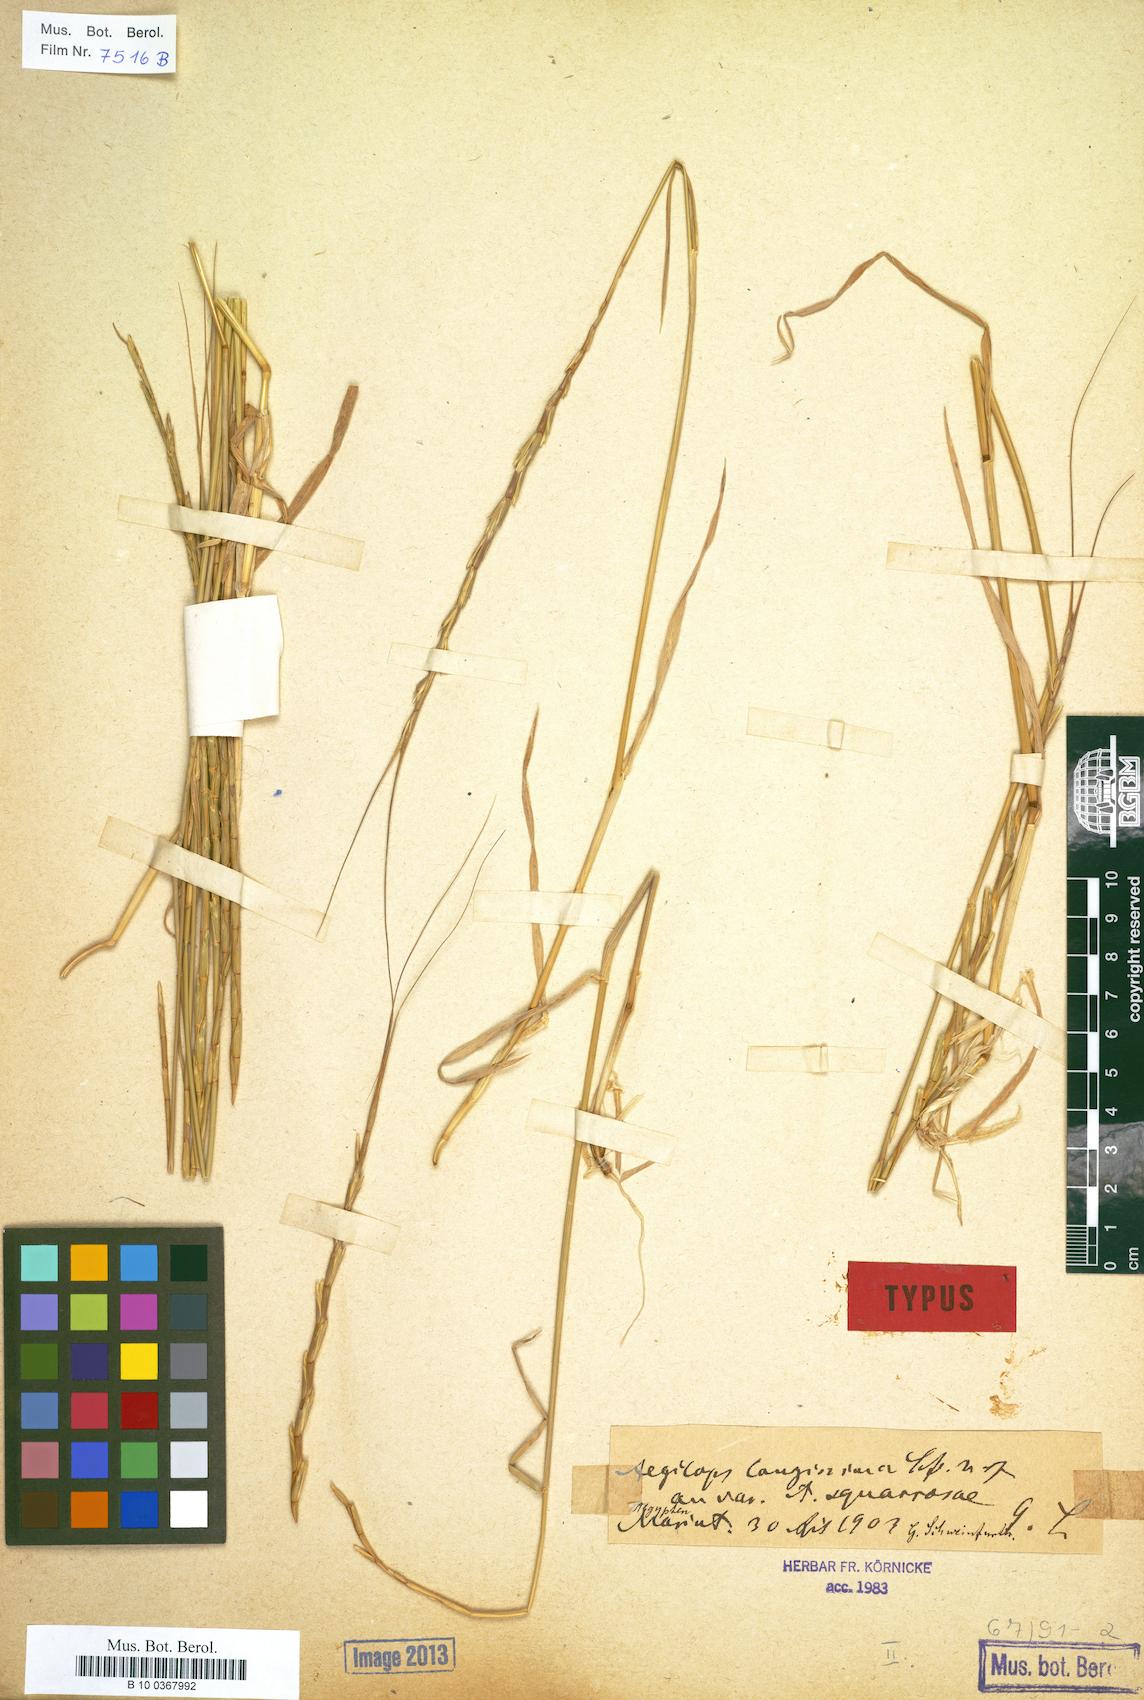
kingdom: Plantae
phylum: Tracheophyta
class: Liliopsida
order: Poales
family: Poaceae
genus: Aegilops
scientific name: Aegilops longissima
